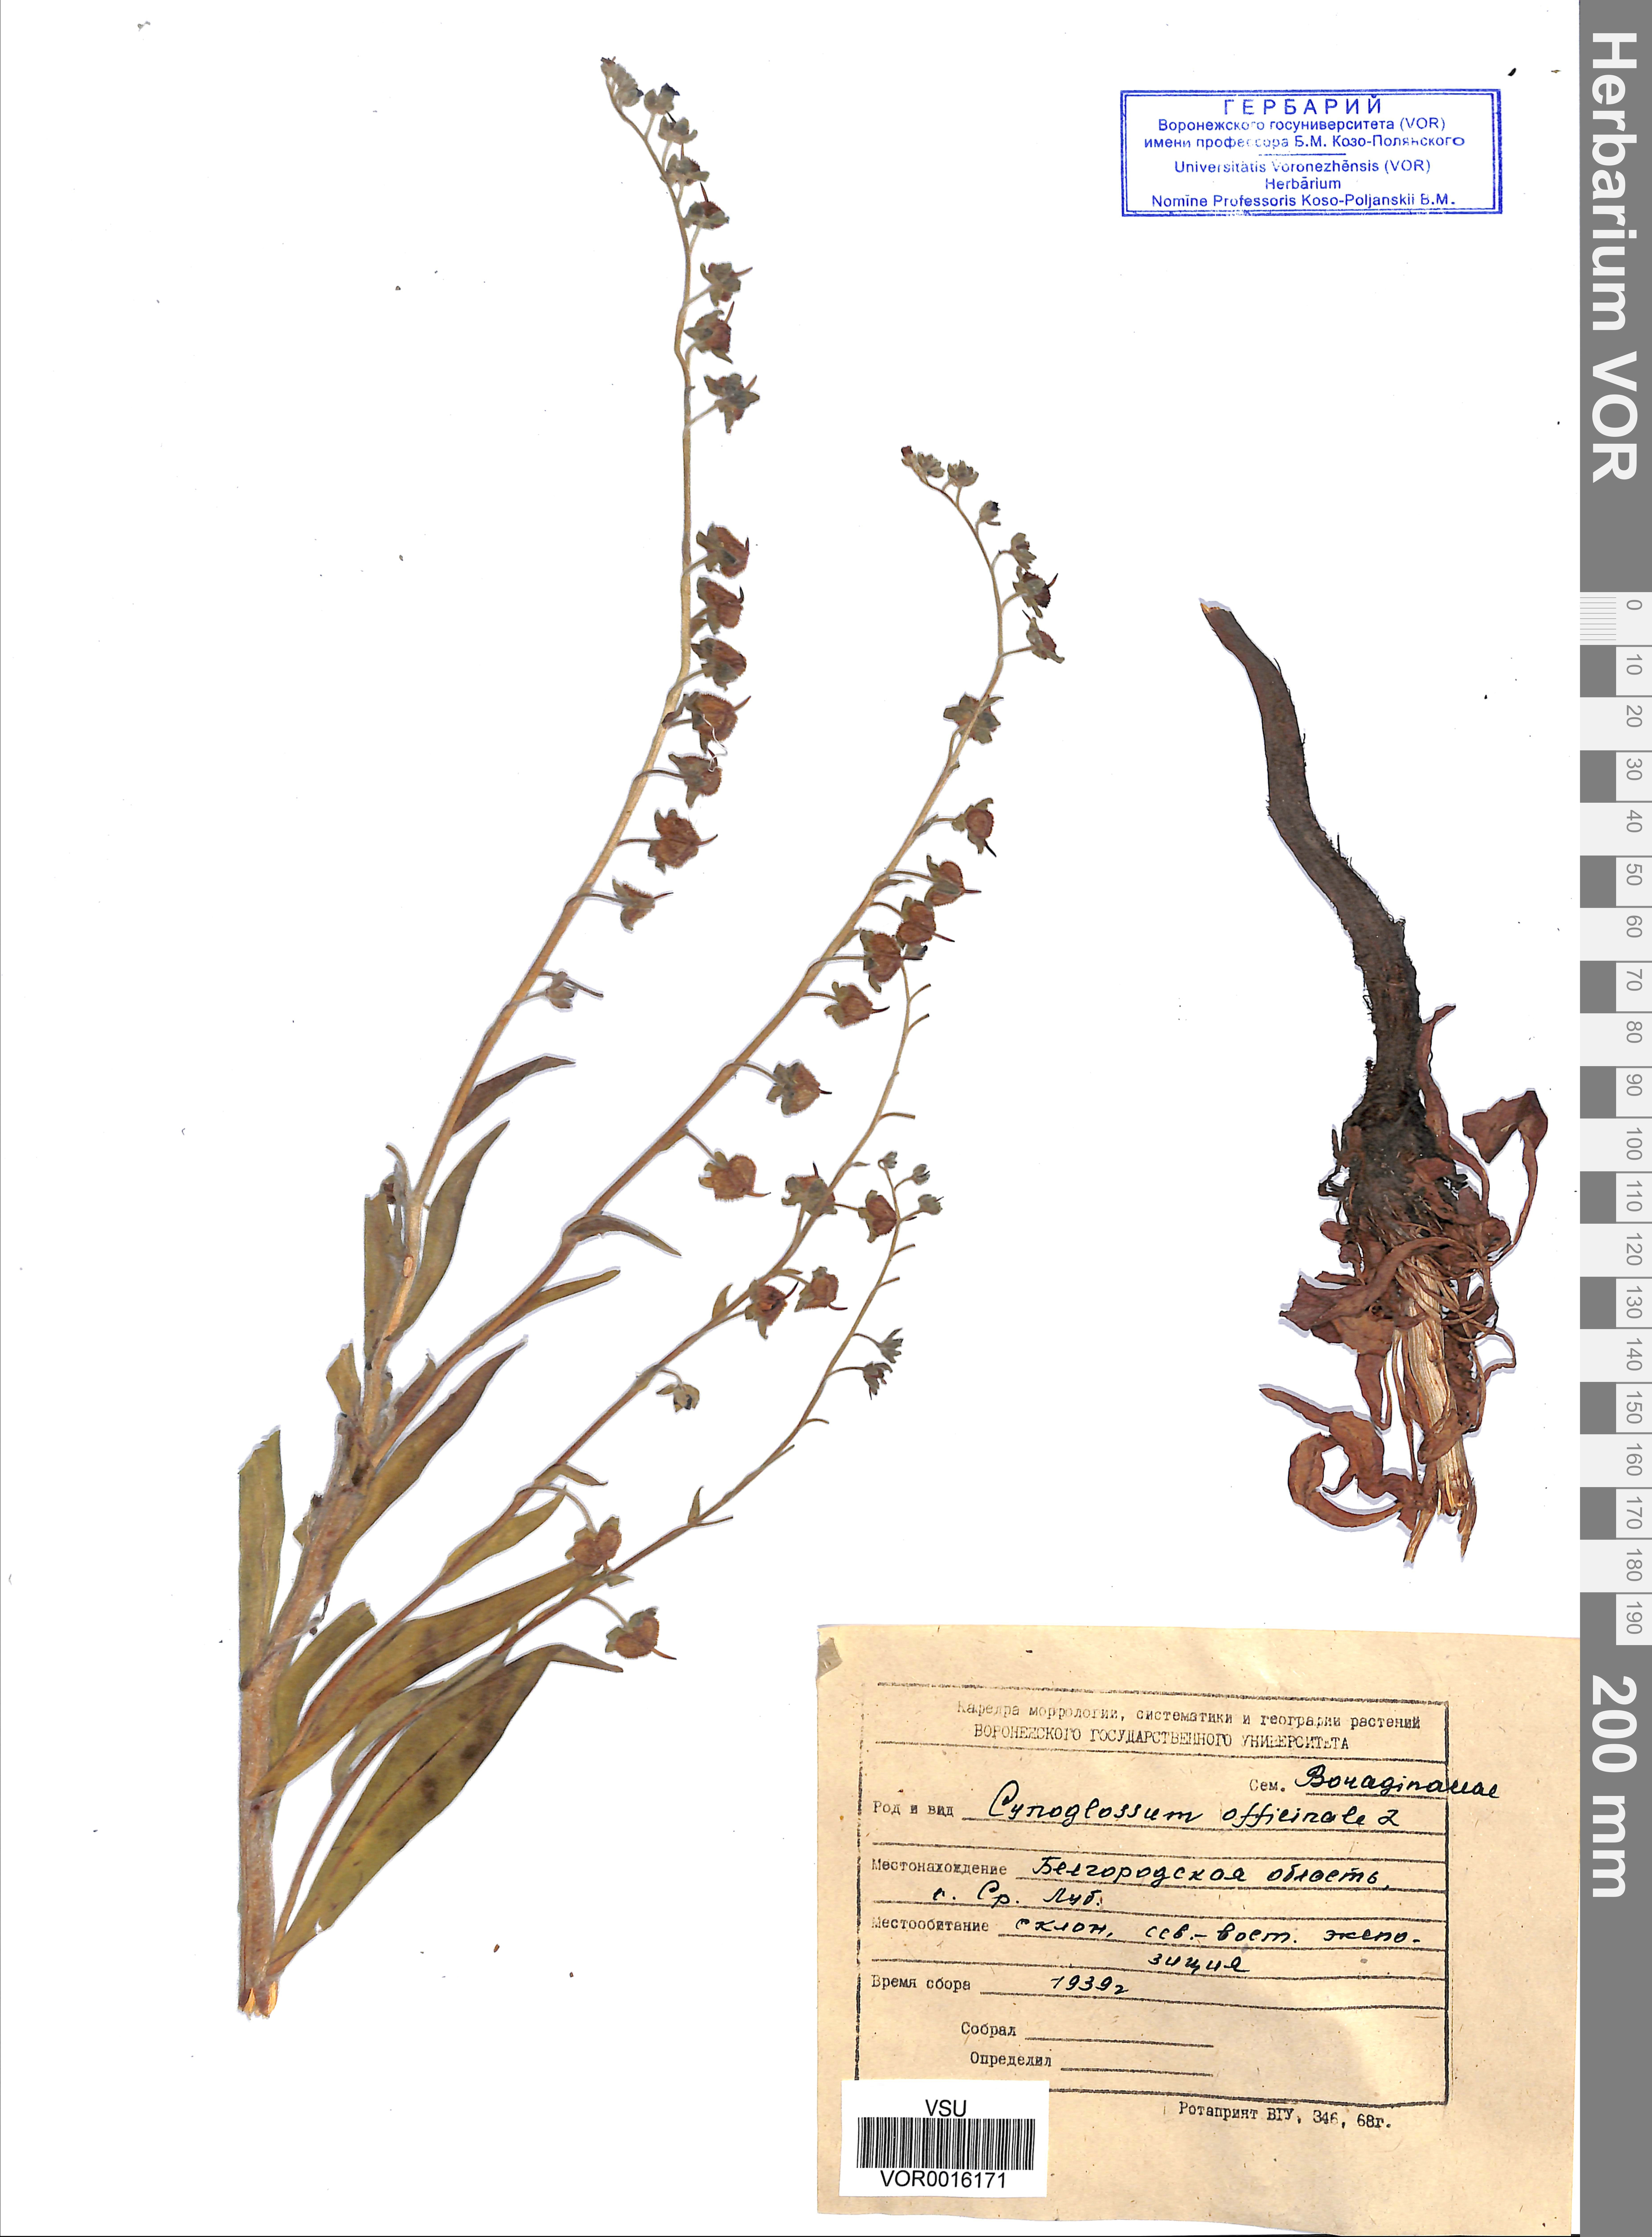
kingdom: Plantae
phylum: Tracheophyta
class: Magnoliopsida
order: Boraginales
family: Boraginaceae
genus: Cynoglossum
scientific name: Cynoglossum officinale
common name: Hound's-tongue
